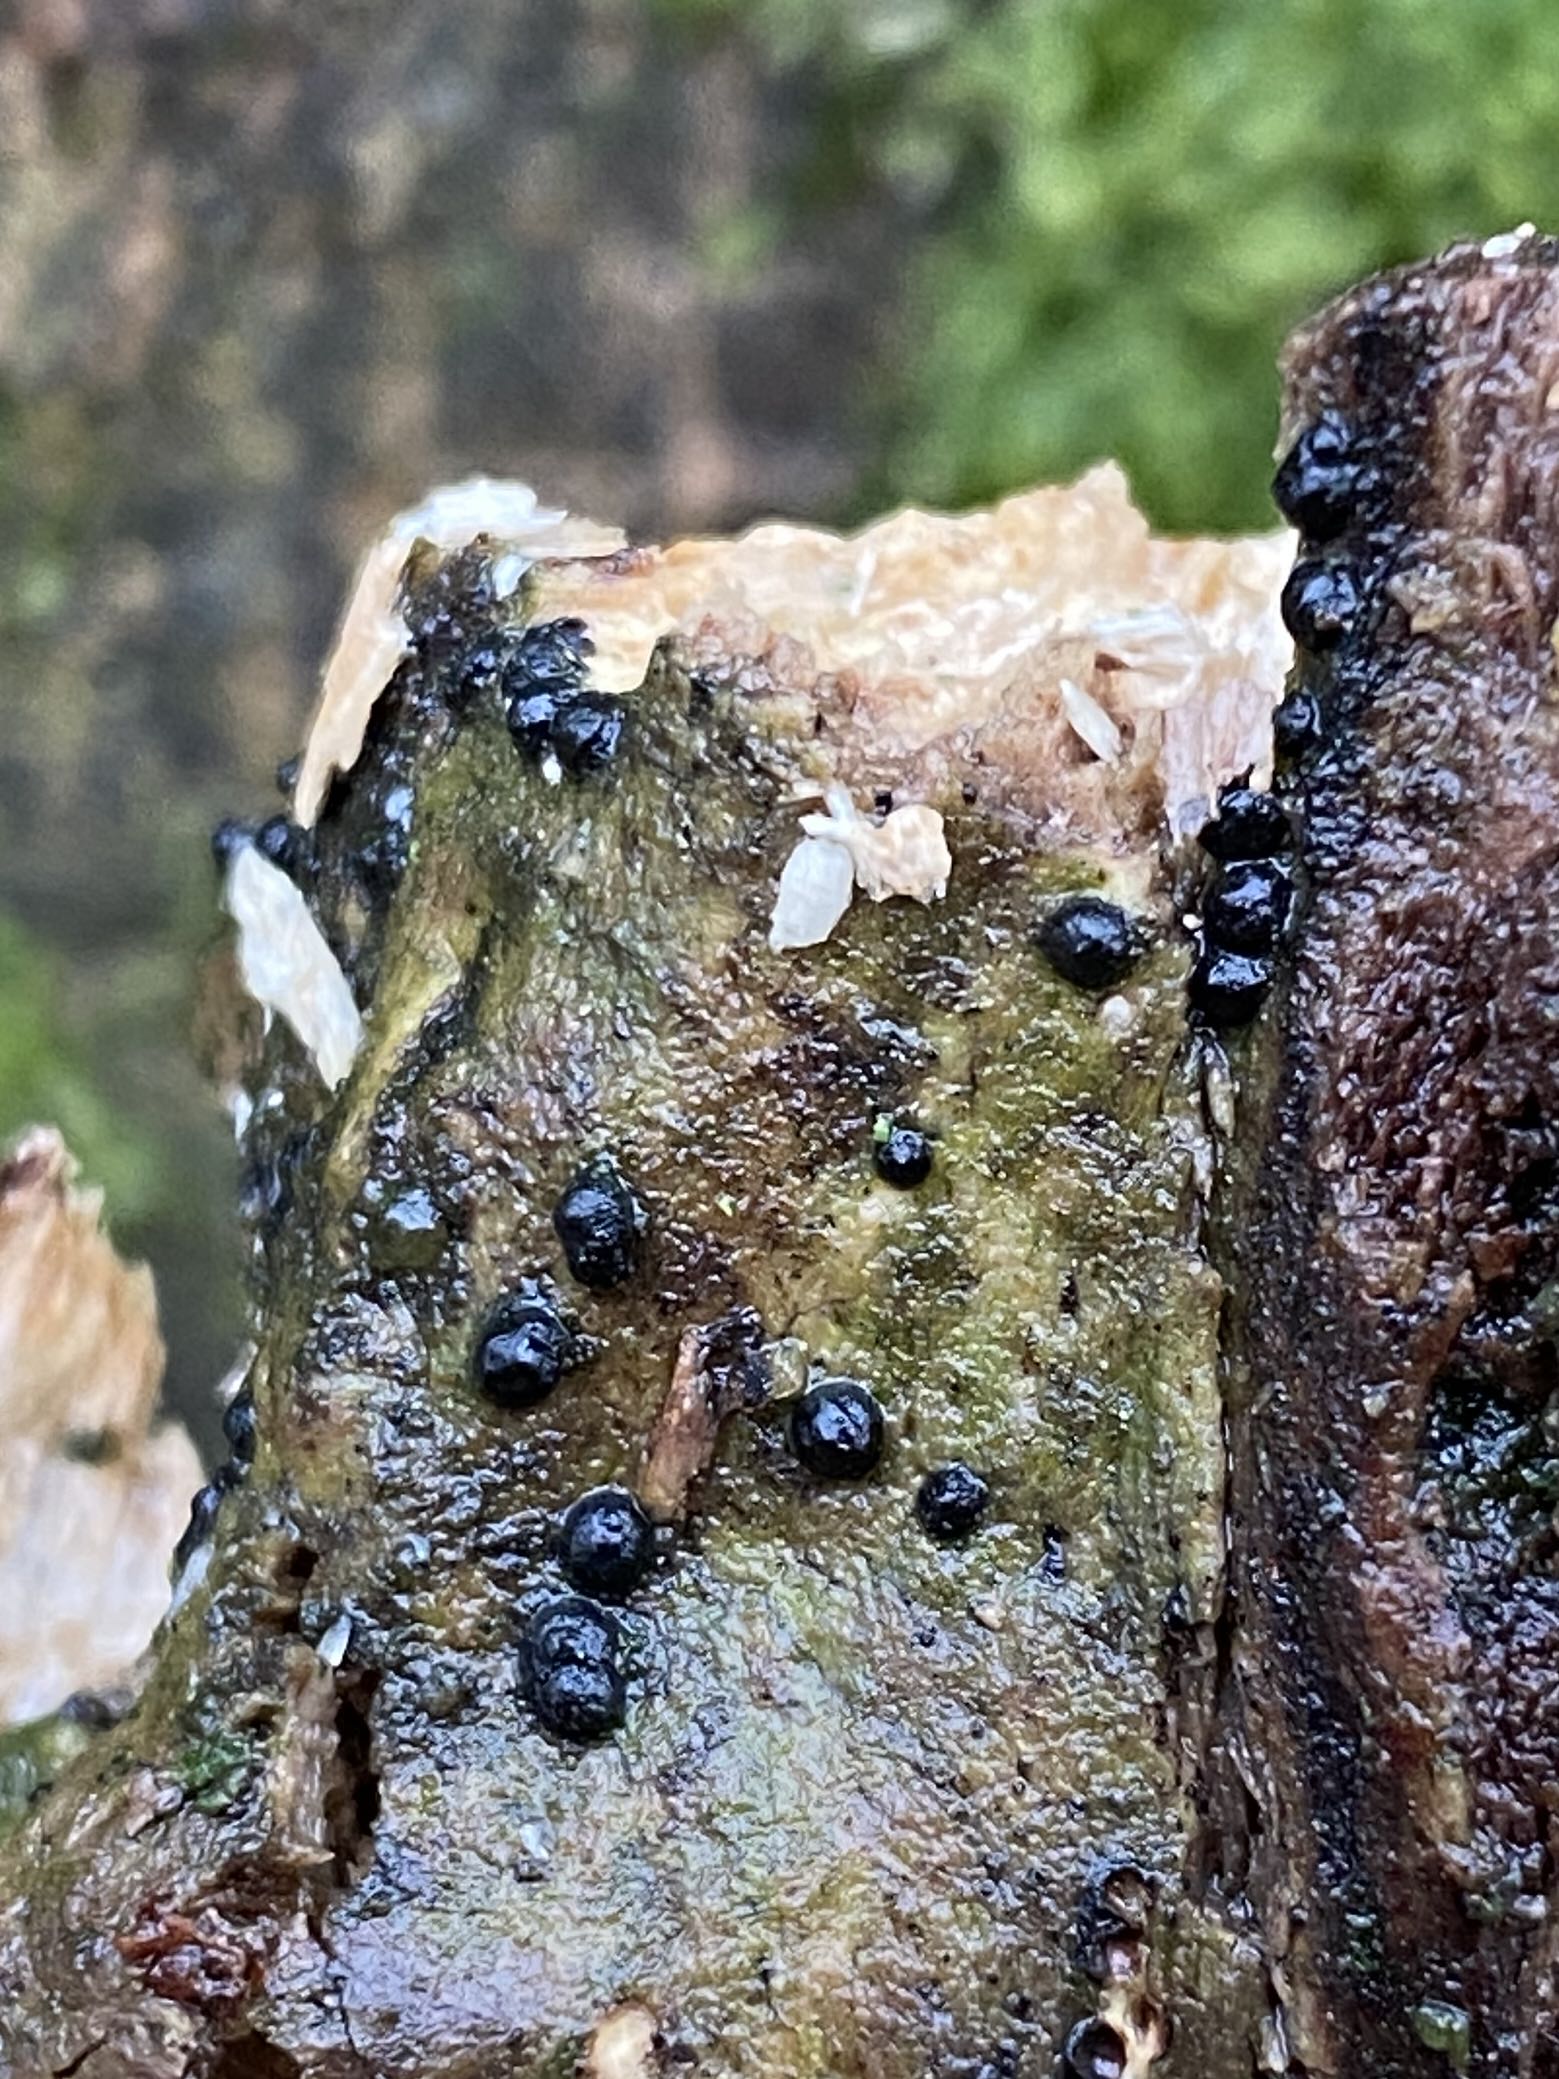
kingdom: Fungi
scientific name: Fungi
